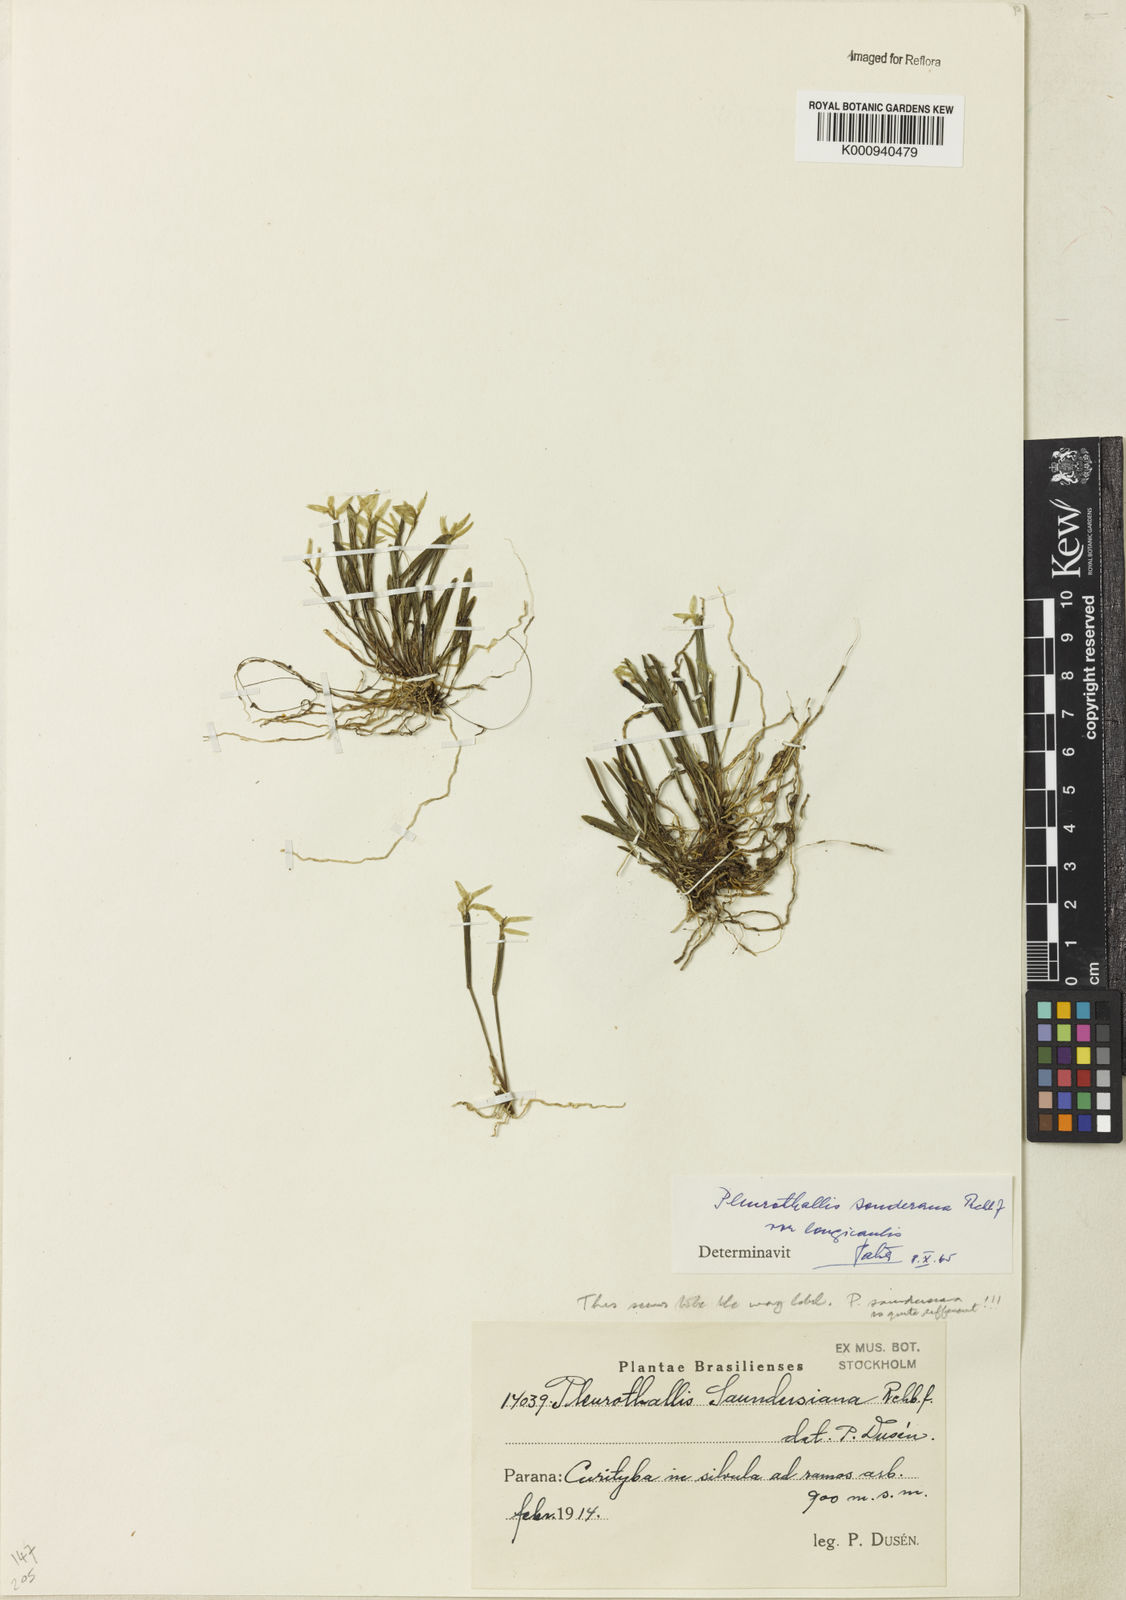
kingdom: Plantae
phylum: Tracheophyta
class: Liliopsida
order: Asparagales
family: Orchidaceae
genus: Acianthera
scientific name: Acianthera sonderiana
